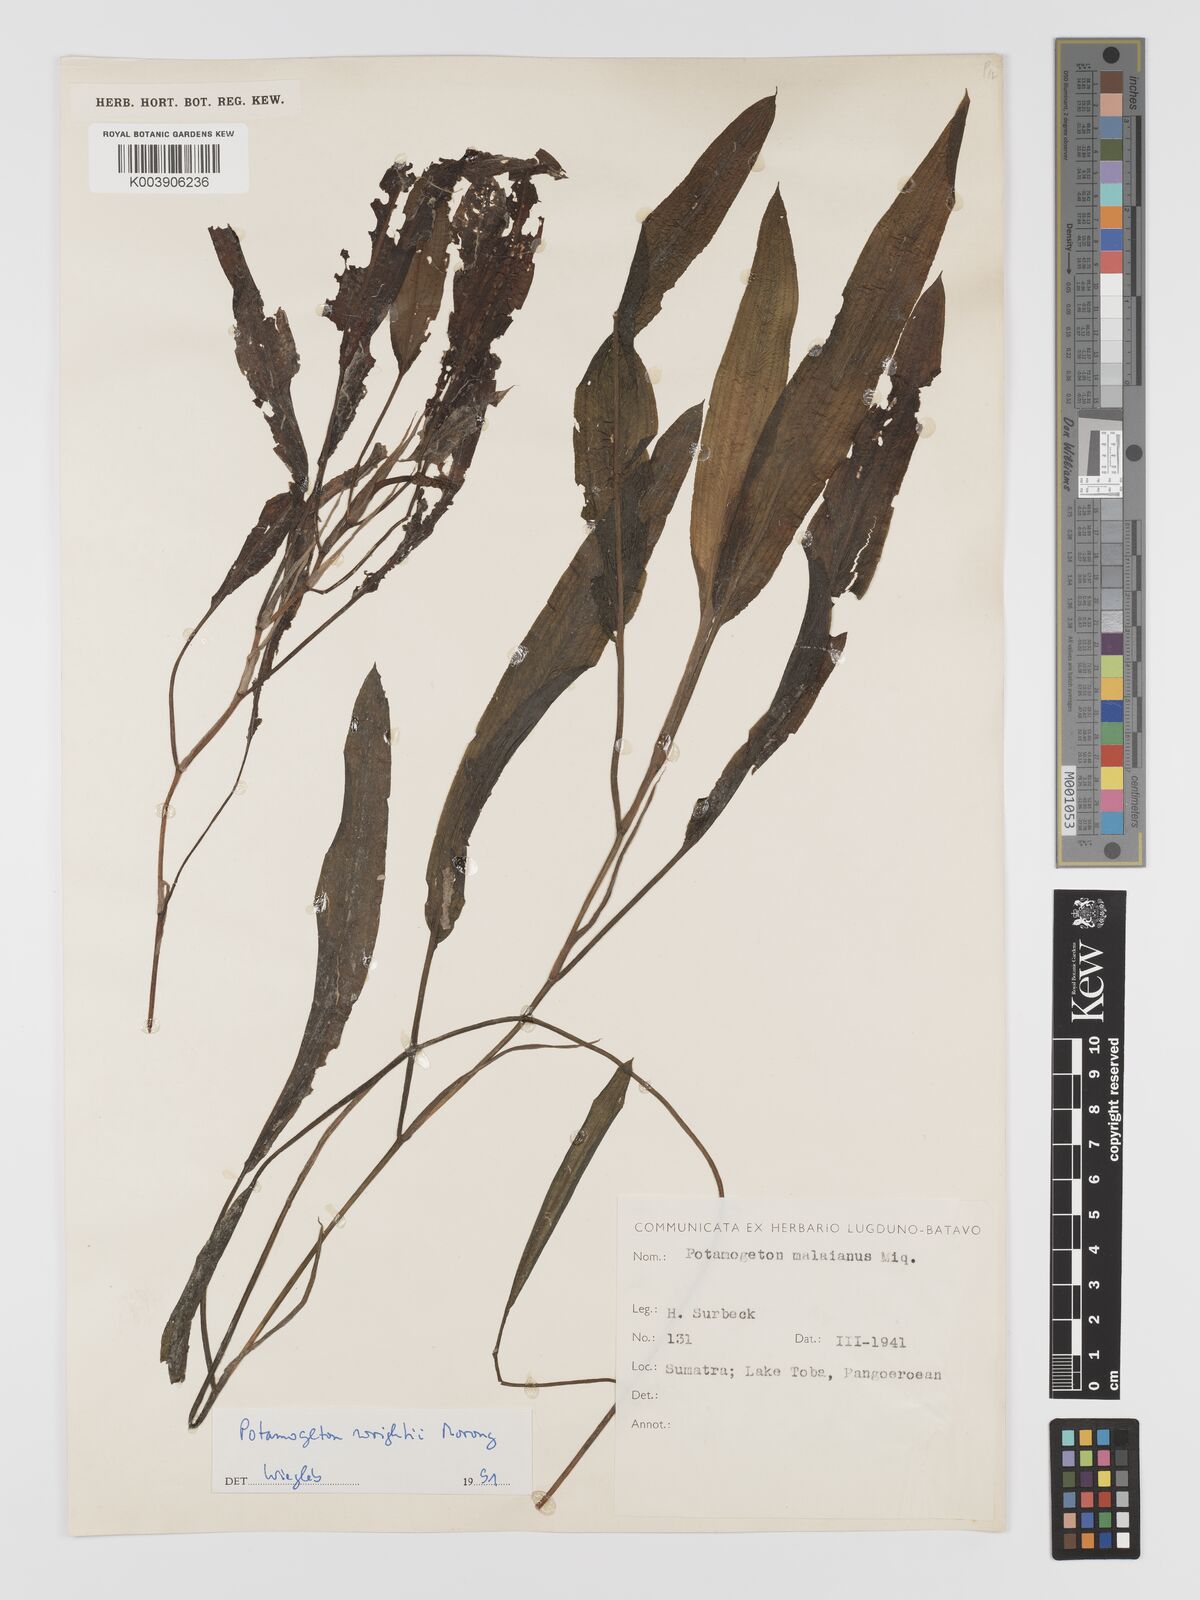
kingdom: Plantae
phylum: Tracheophyta
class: Liliopsida
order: Alismatales
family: Potamogetonaceae
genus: Potamogeton
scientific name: Potamogeton wrightii
